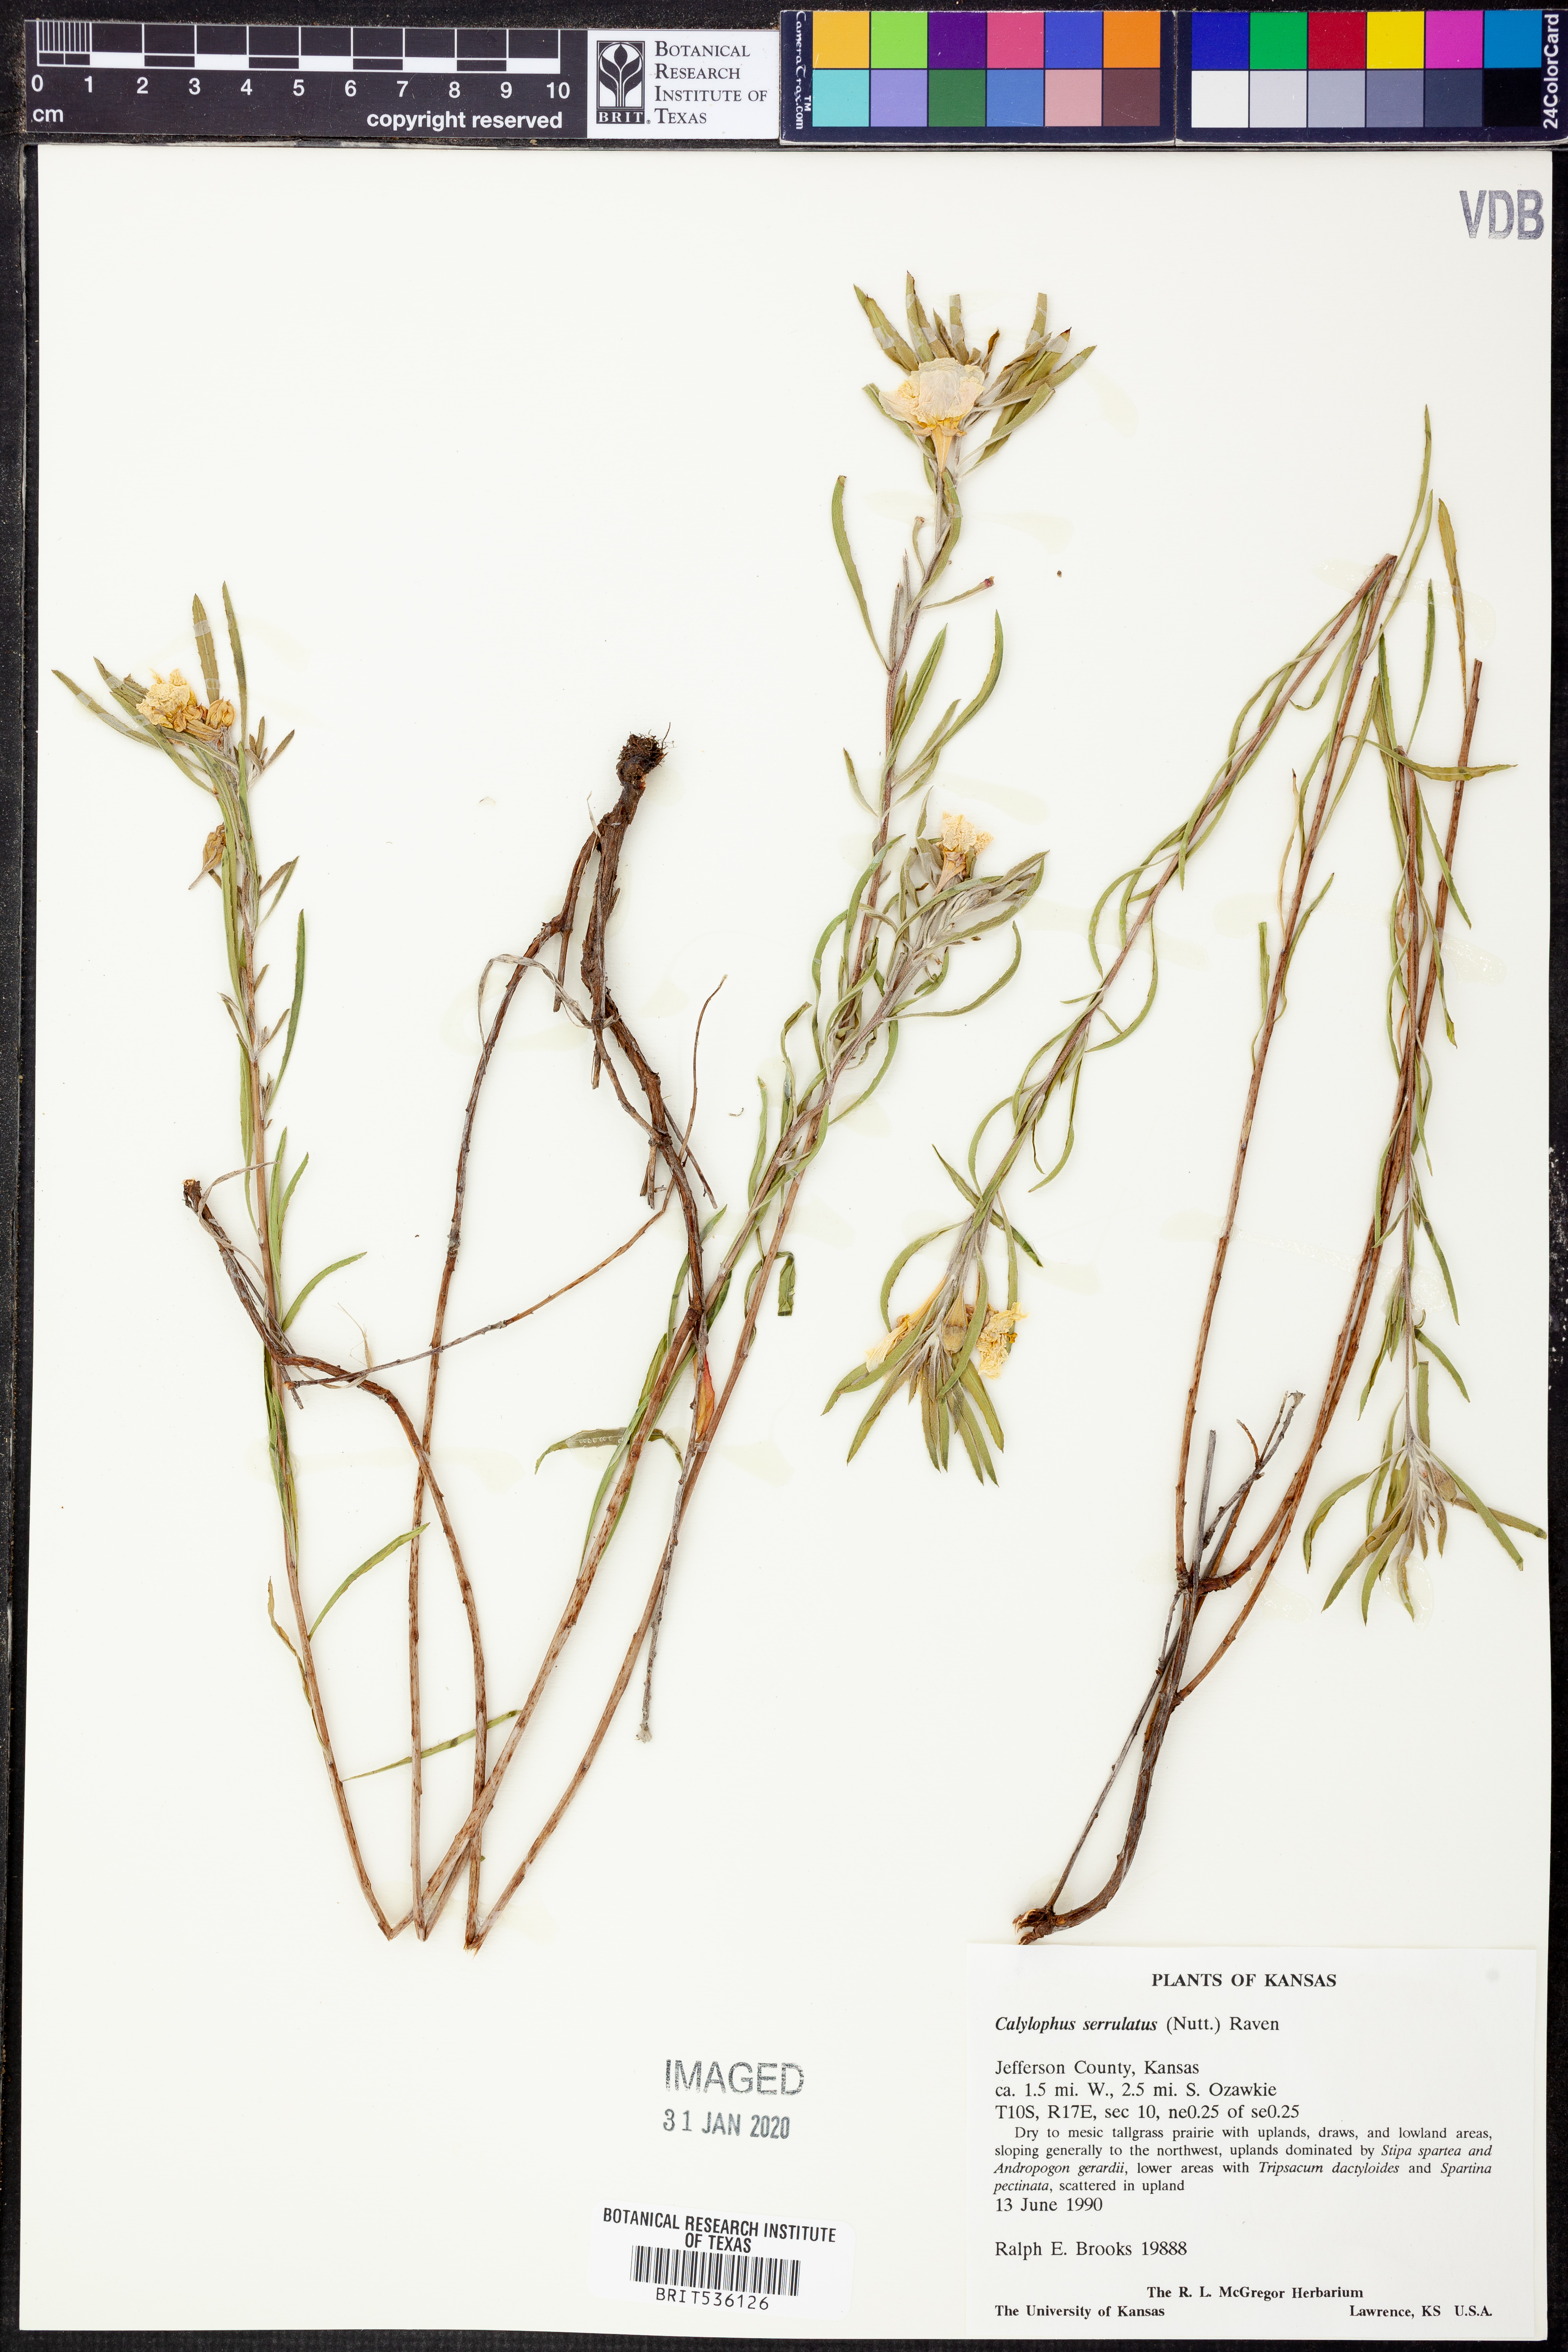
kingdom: Plantae
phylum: Tracheophyta
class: Magnoliopsida
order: Myrtales
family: Onagraceae
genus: Oenothera
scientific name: Oenothera serrulata
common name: Half-shrub calylophus
